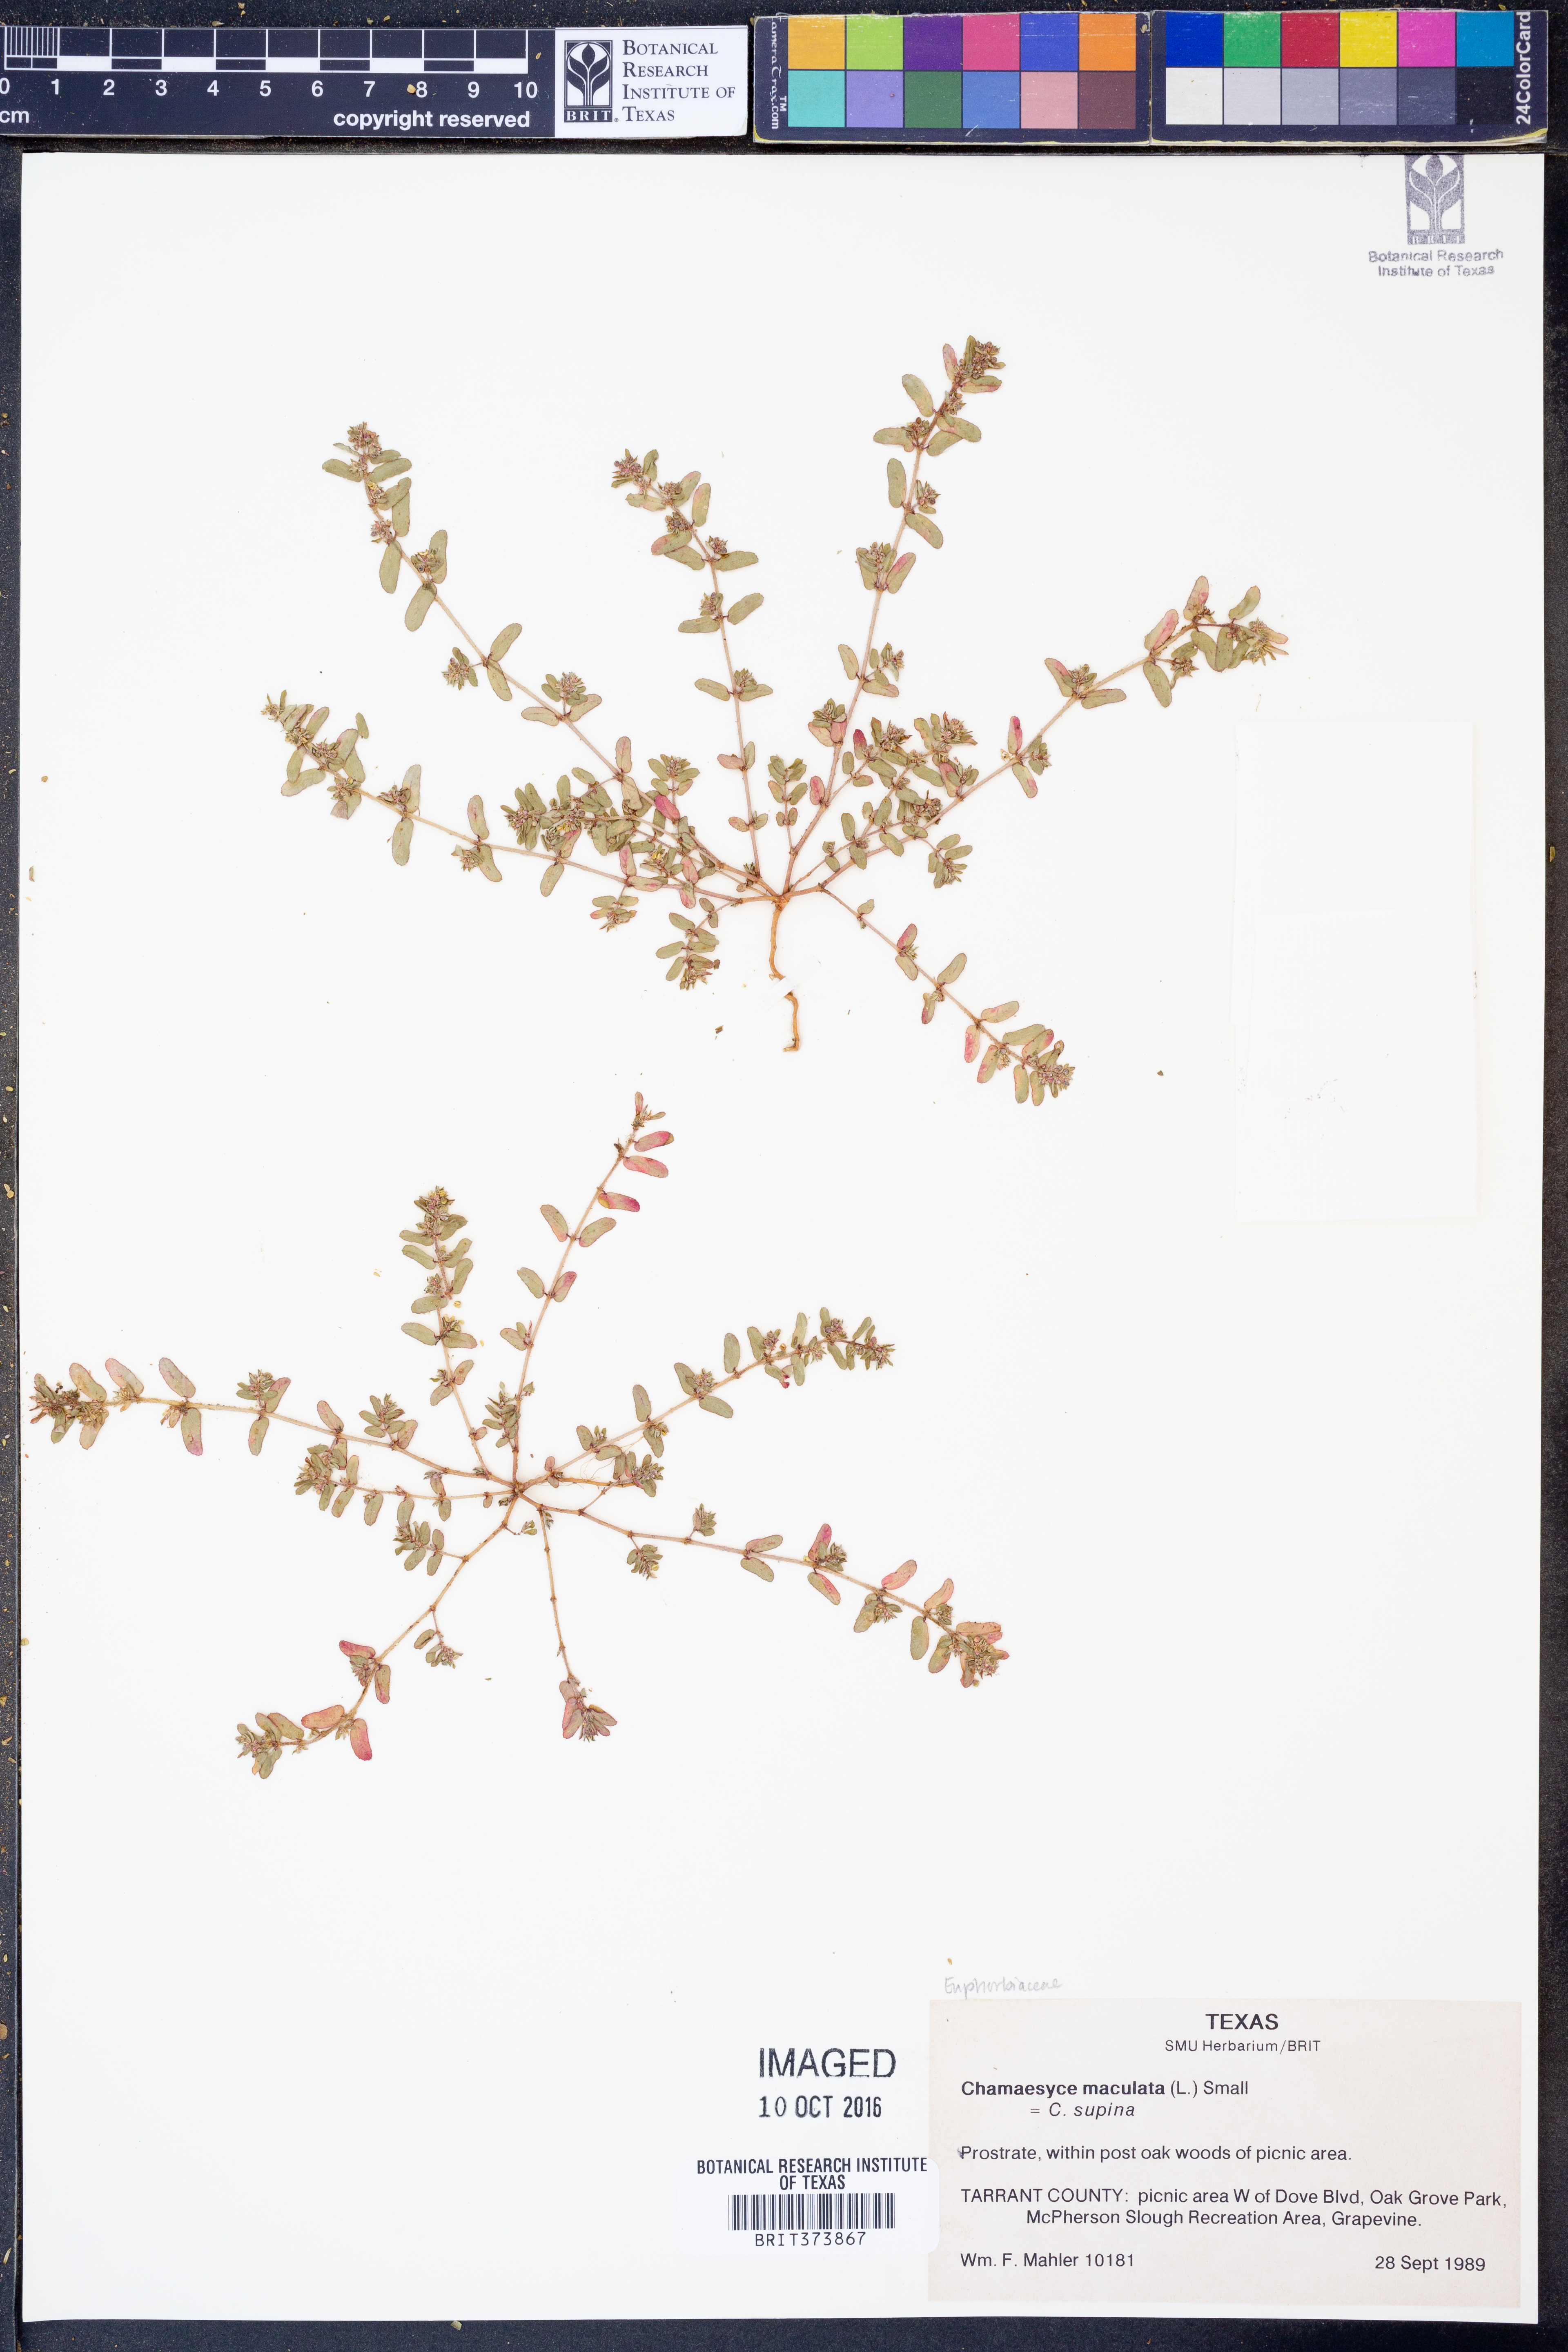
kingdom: Plantae
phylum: Tracheophyta
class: Magnoliopsida
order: Malpighiales
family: Euphorbiaceae
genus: Euphorbia
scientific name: Euphorbia maculata
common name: Spotted spurge
